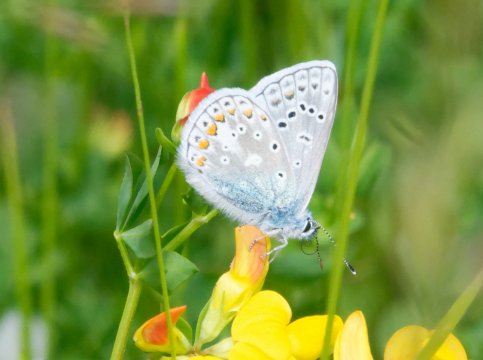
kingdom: Animalia
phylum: Arthropoda
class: Insecta
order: Lepidoptera
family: Lycaenidae
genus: Polyommatus
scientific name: Polyommatus icarus
